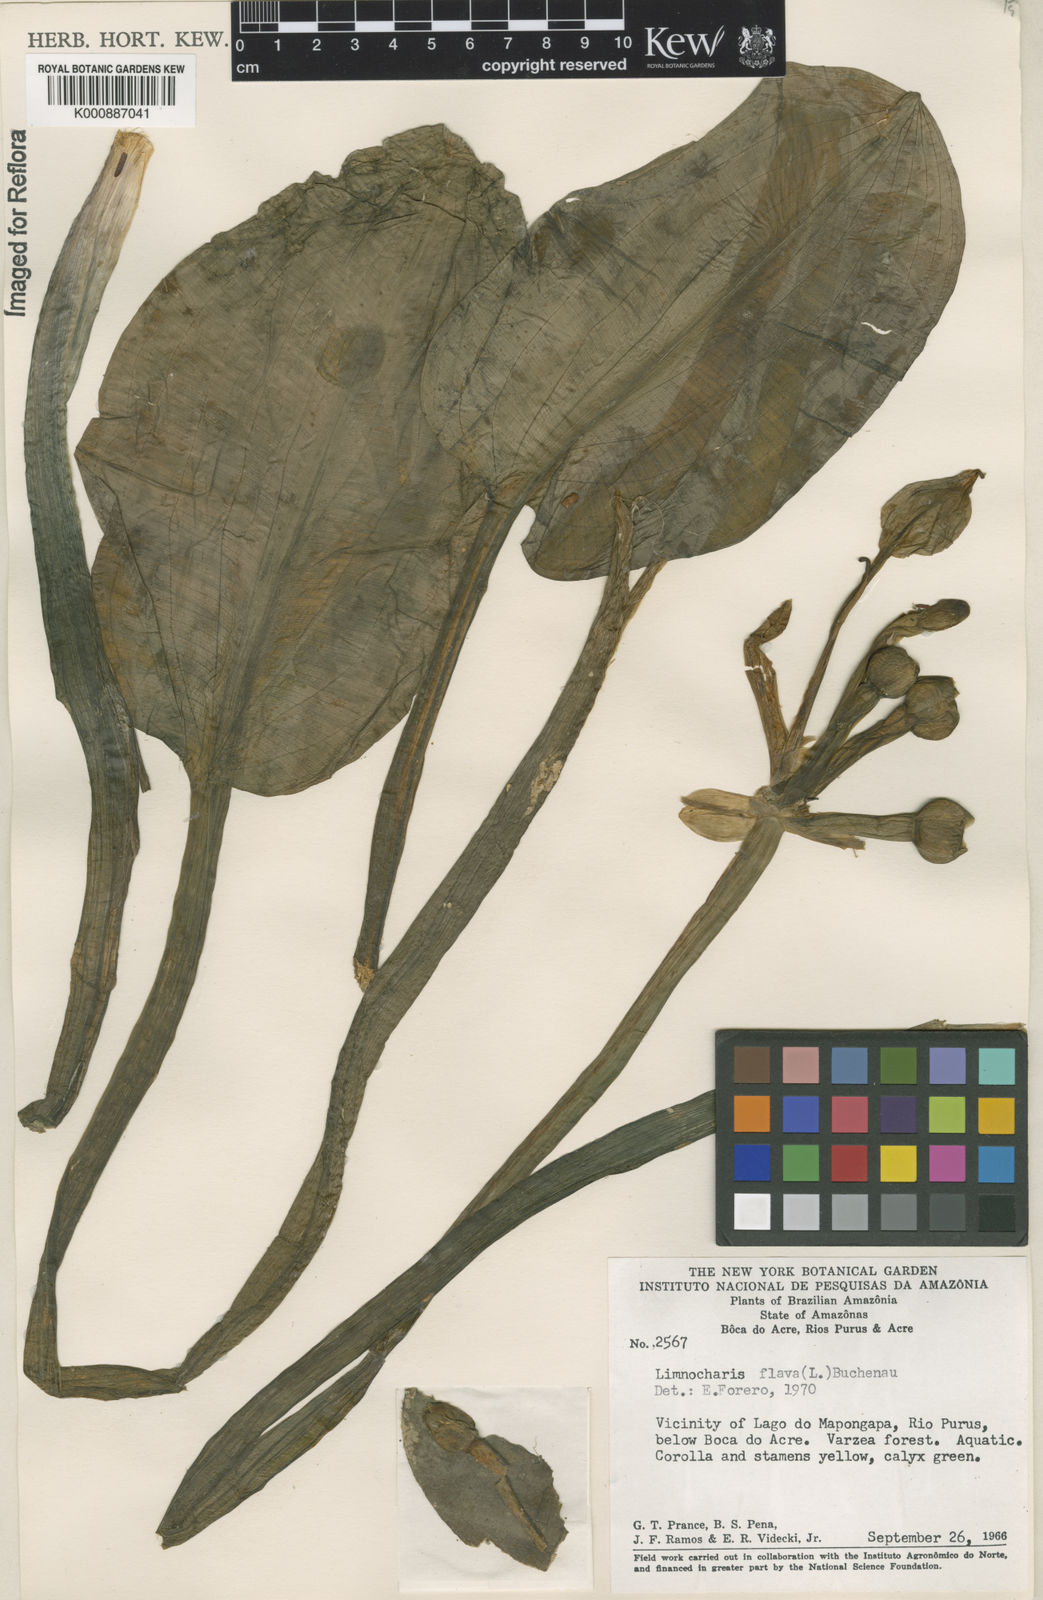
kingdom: Plantae
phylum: Tracheophyta
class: Liliopsida
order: Alismatales
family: Alismataceae
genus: Limnocharis
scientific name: Limnocharis flava
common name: Sawah-flower-rush
